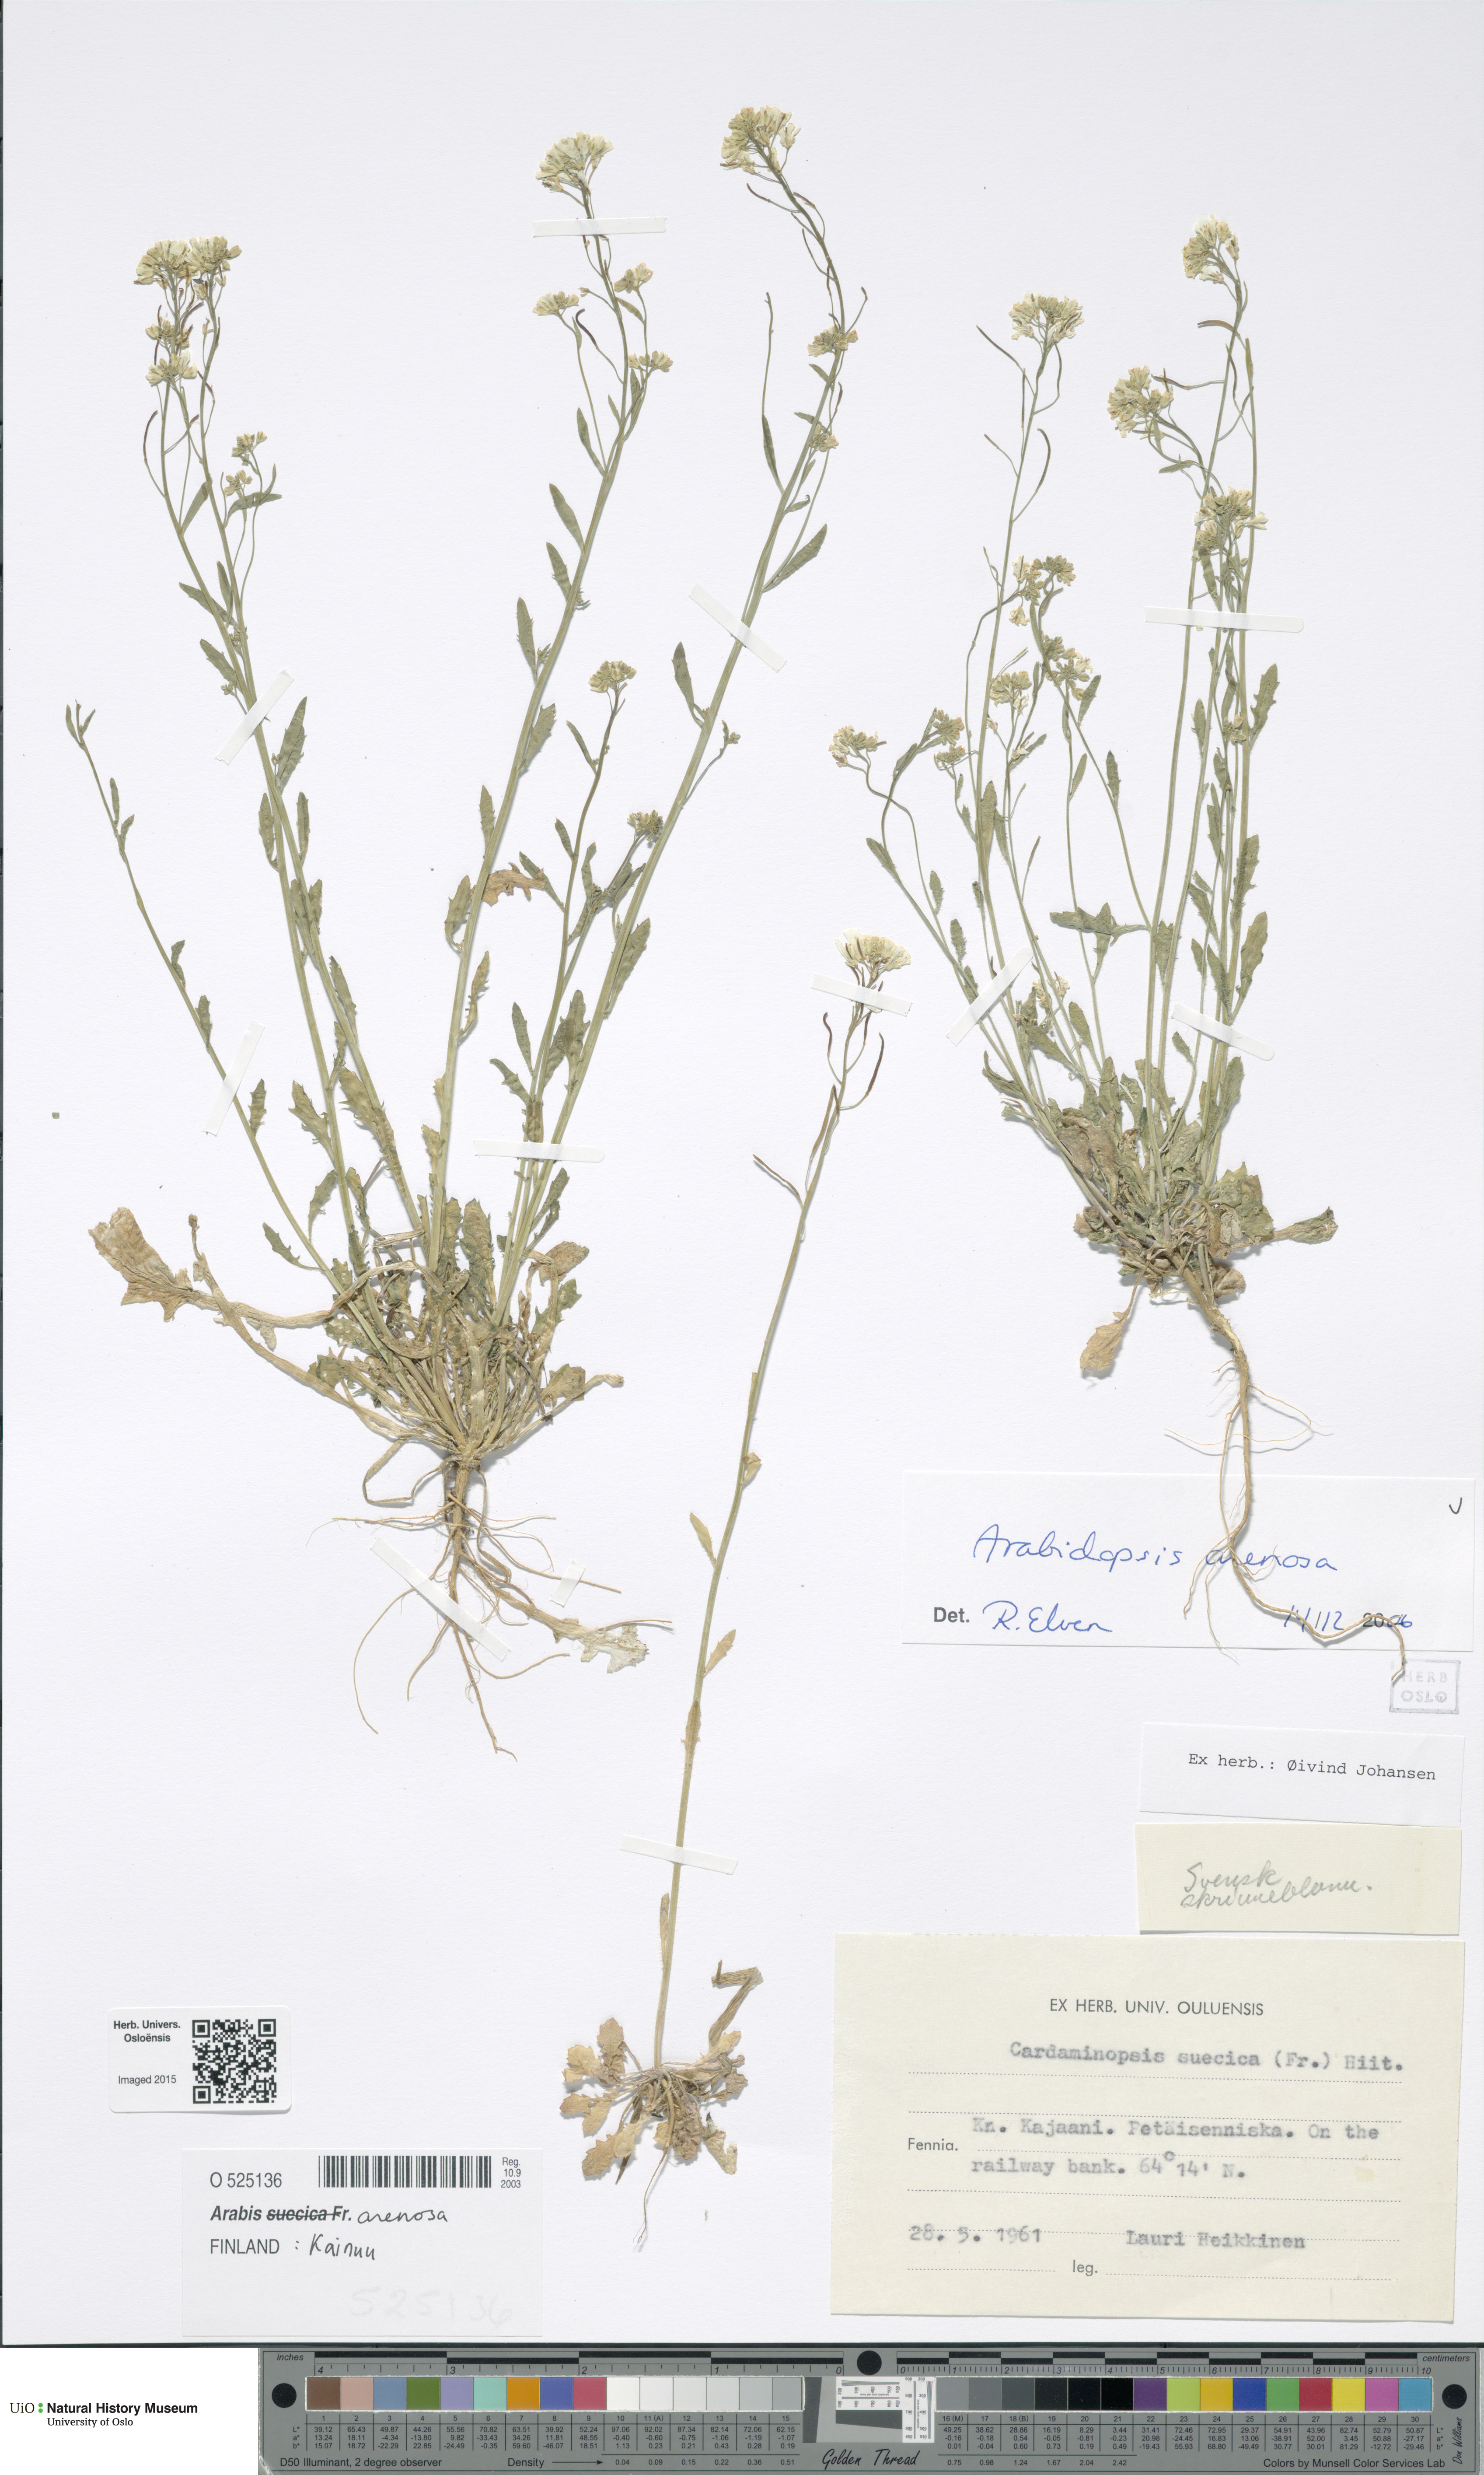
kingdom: Plantae
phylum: Tracheophyta
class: Magnoliopsida
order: Brassicales
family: Brassicaceae
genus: Arabidopsis
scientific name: Arabidopsis arenosa
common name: Sand rock-cress
